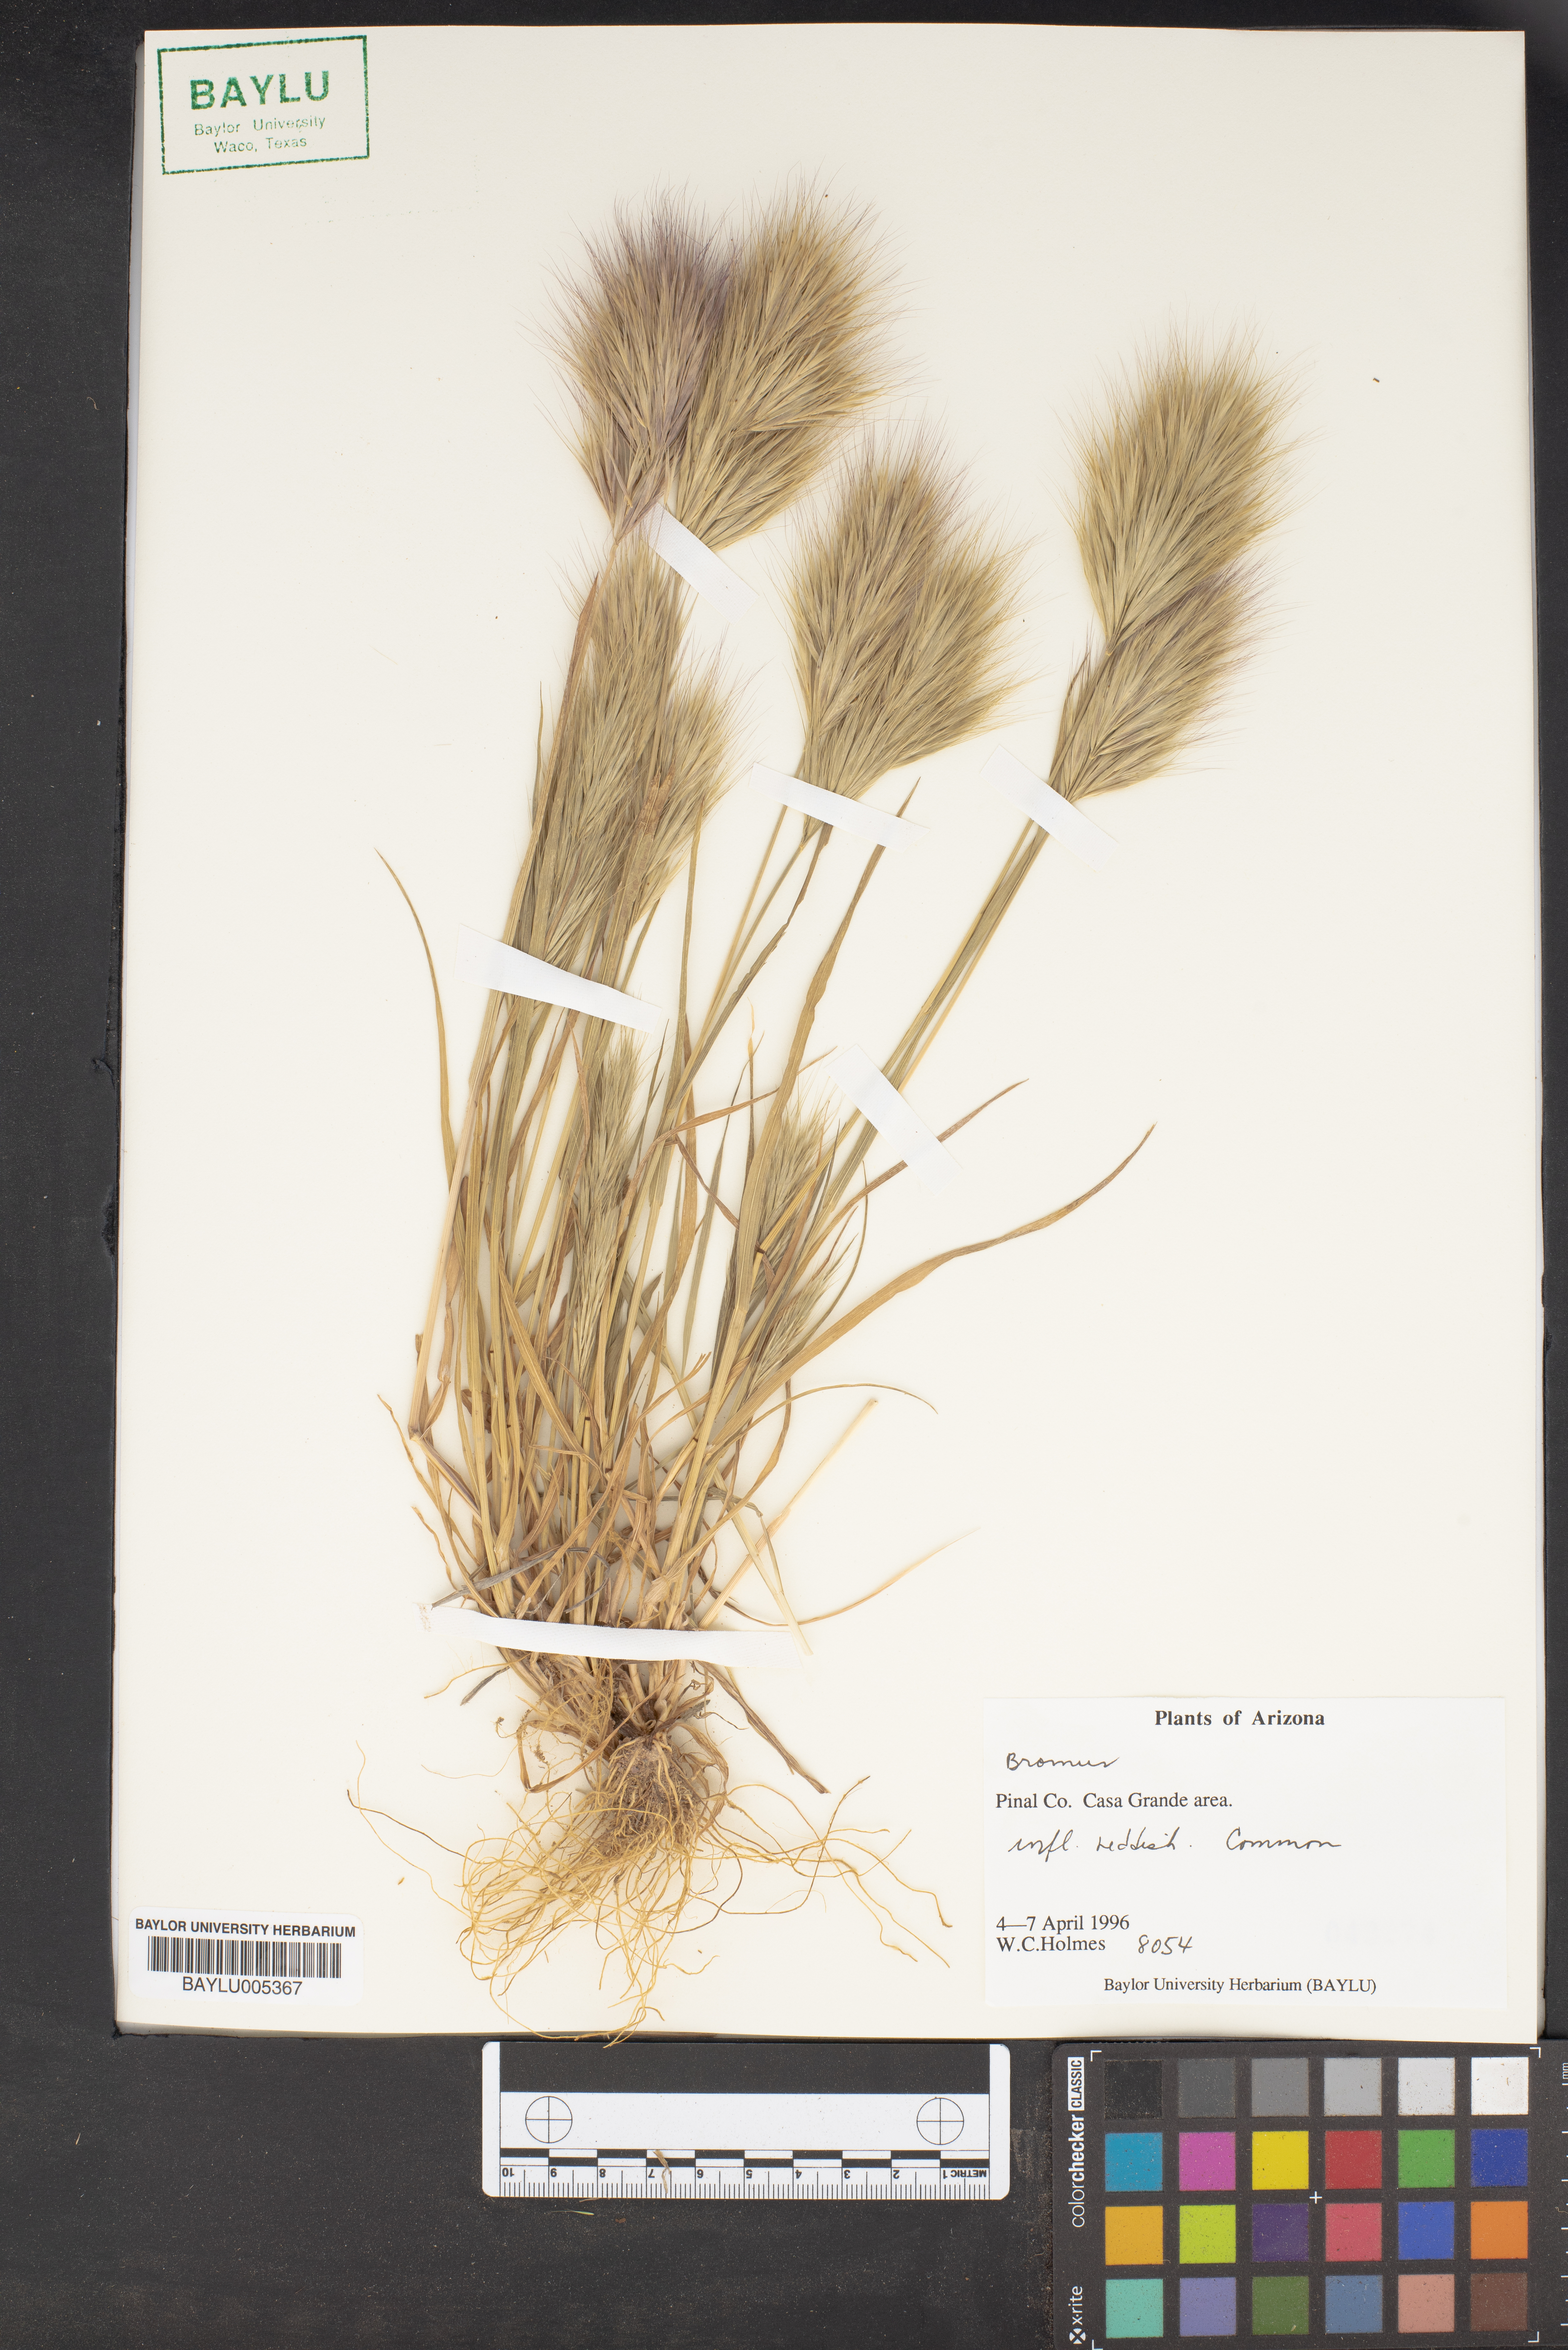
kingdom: Plantae
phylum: Tracheophyta
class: Liliopsida
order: Poales
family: Poaceae
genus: Bromus
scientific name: Bromus
